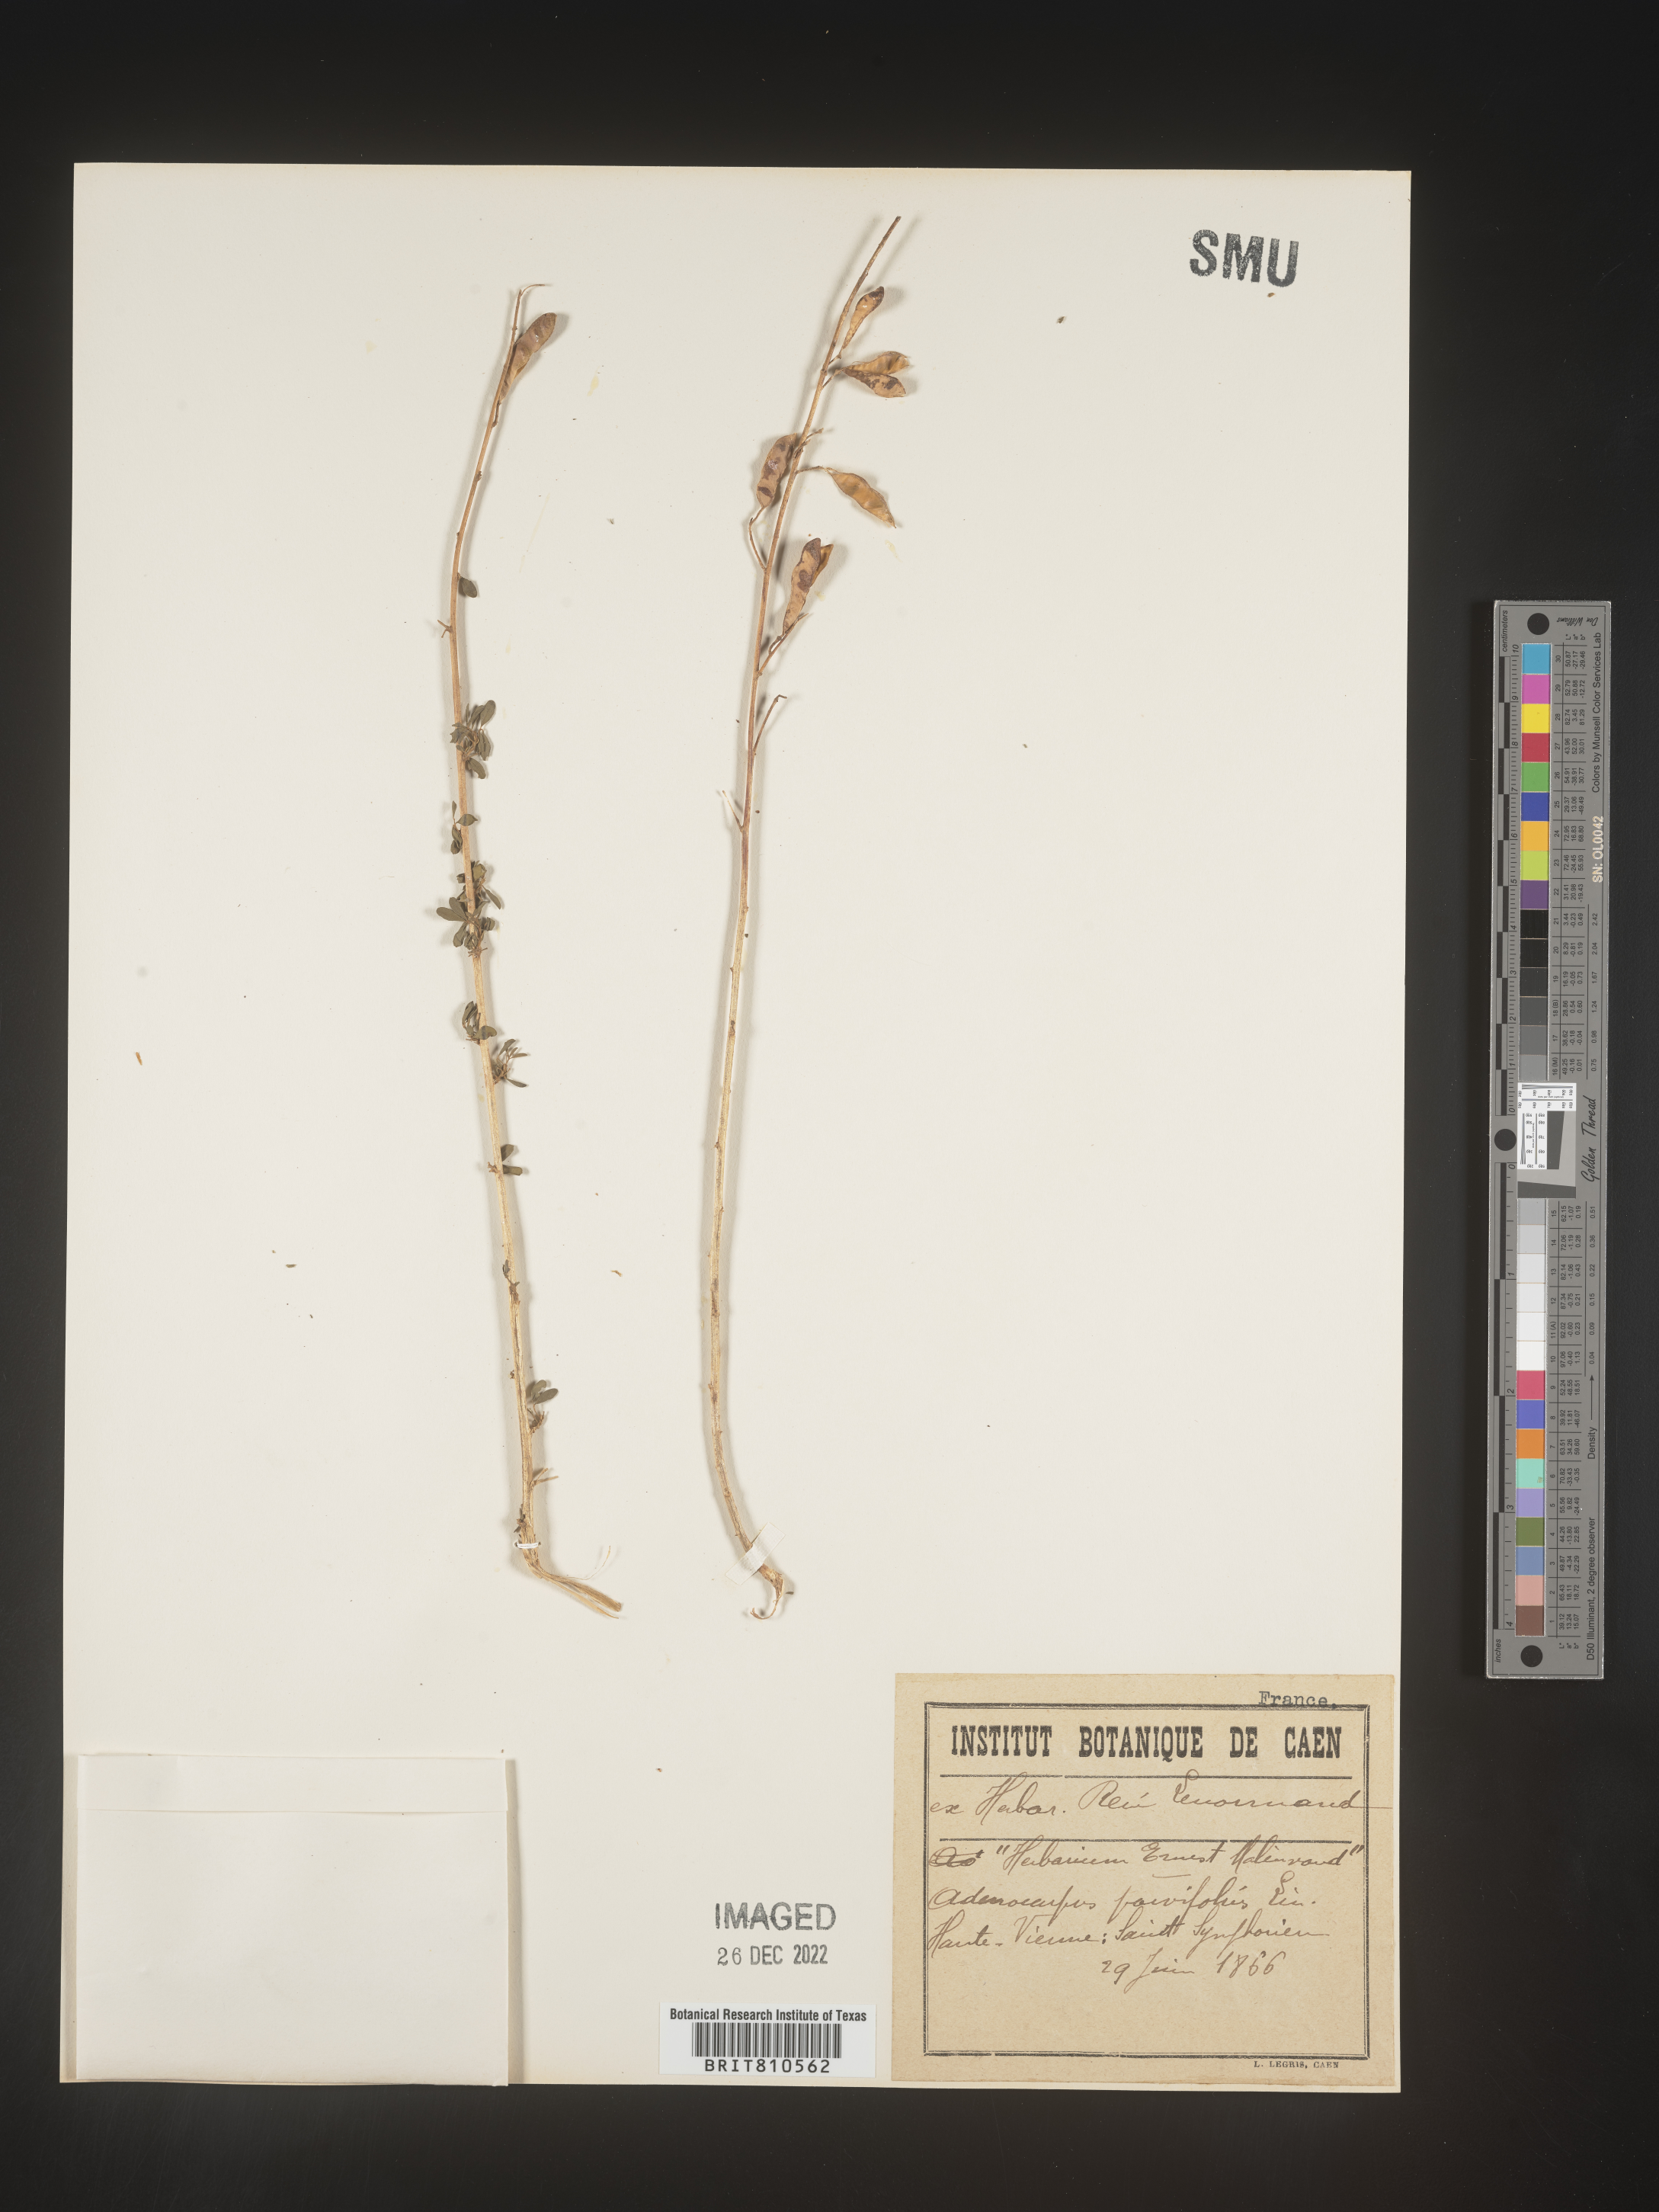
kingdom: Plantae
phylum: Tracheophyta
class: Magnoliopsida
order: Fabales
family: Fabaceae
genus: Adenocarpus
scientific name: Adenocarpus
